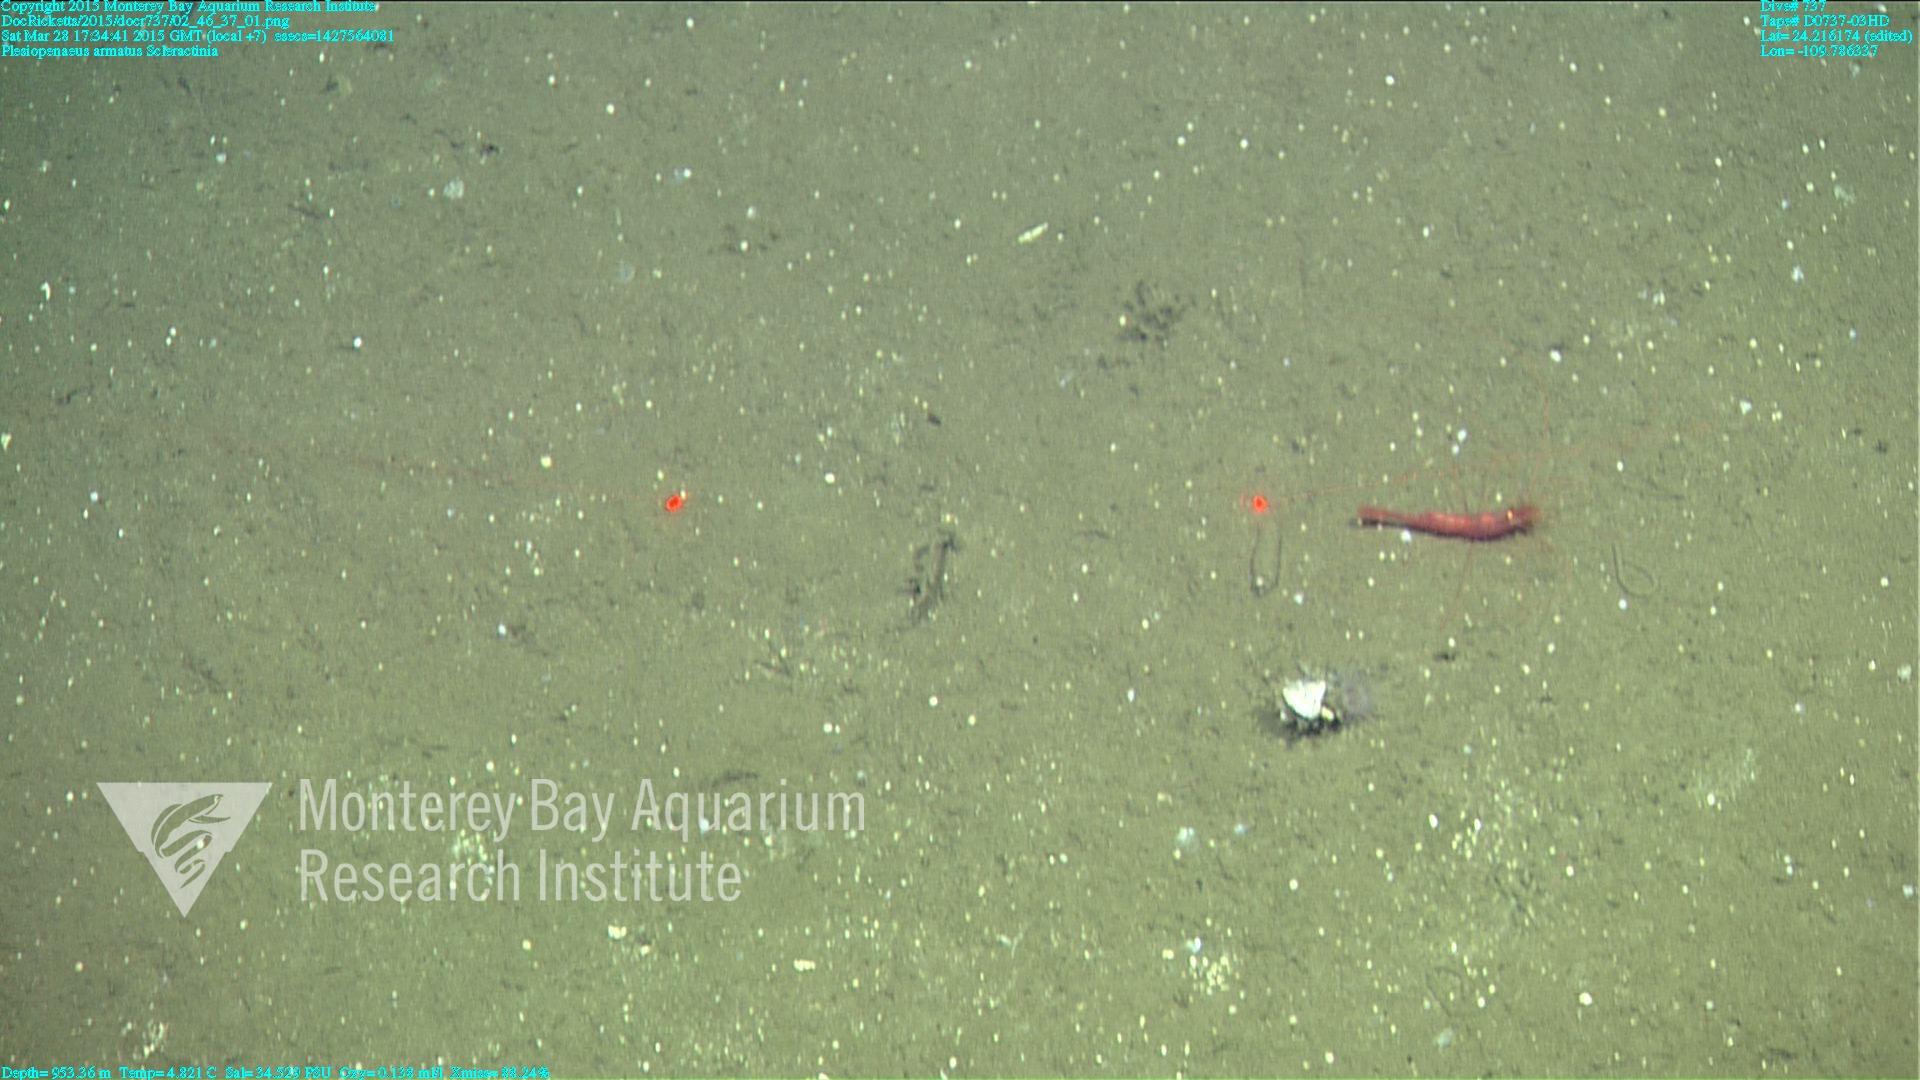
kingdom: Animalia
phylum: Cnidaria
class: Anthozoa
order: Scleractinia
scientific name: Scleractinia
